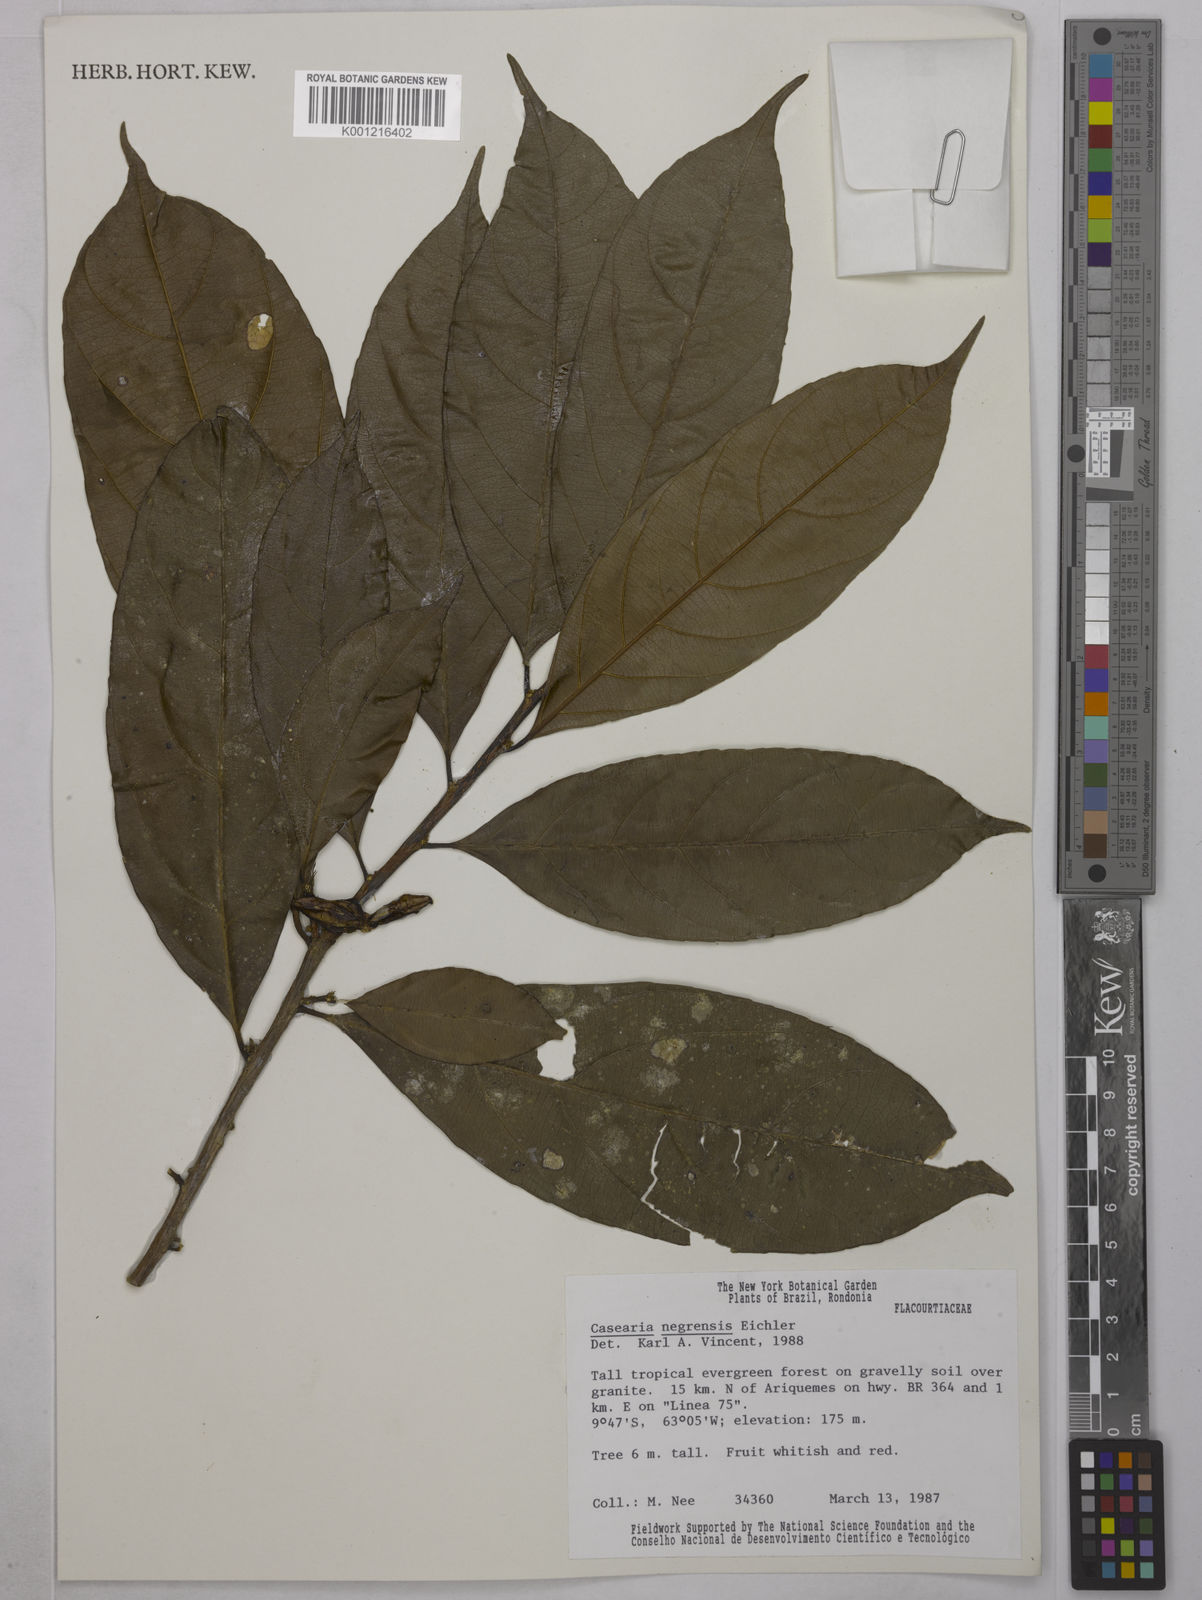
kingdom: Plantae
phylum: Tracheophyta
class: Magnoliopsida
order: Malpighiales
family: Salicaceae
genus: Casearia
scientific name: Casearia negrensis
